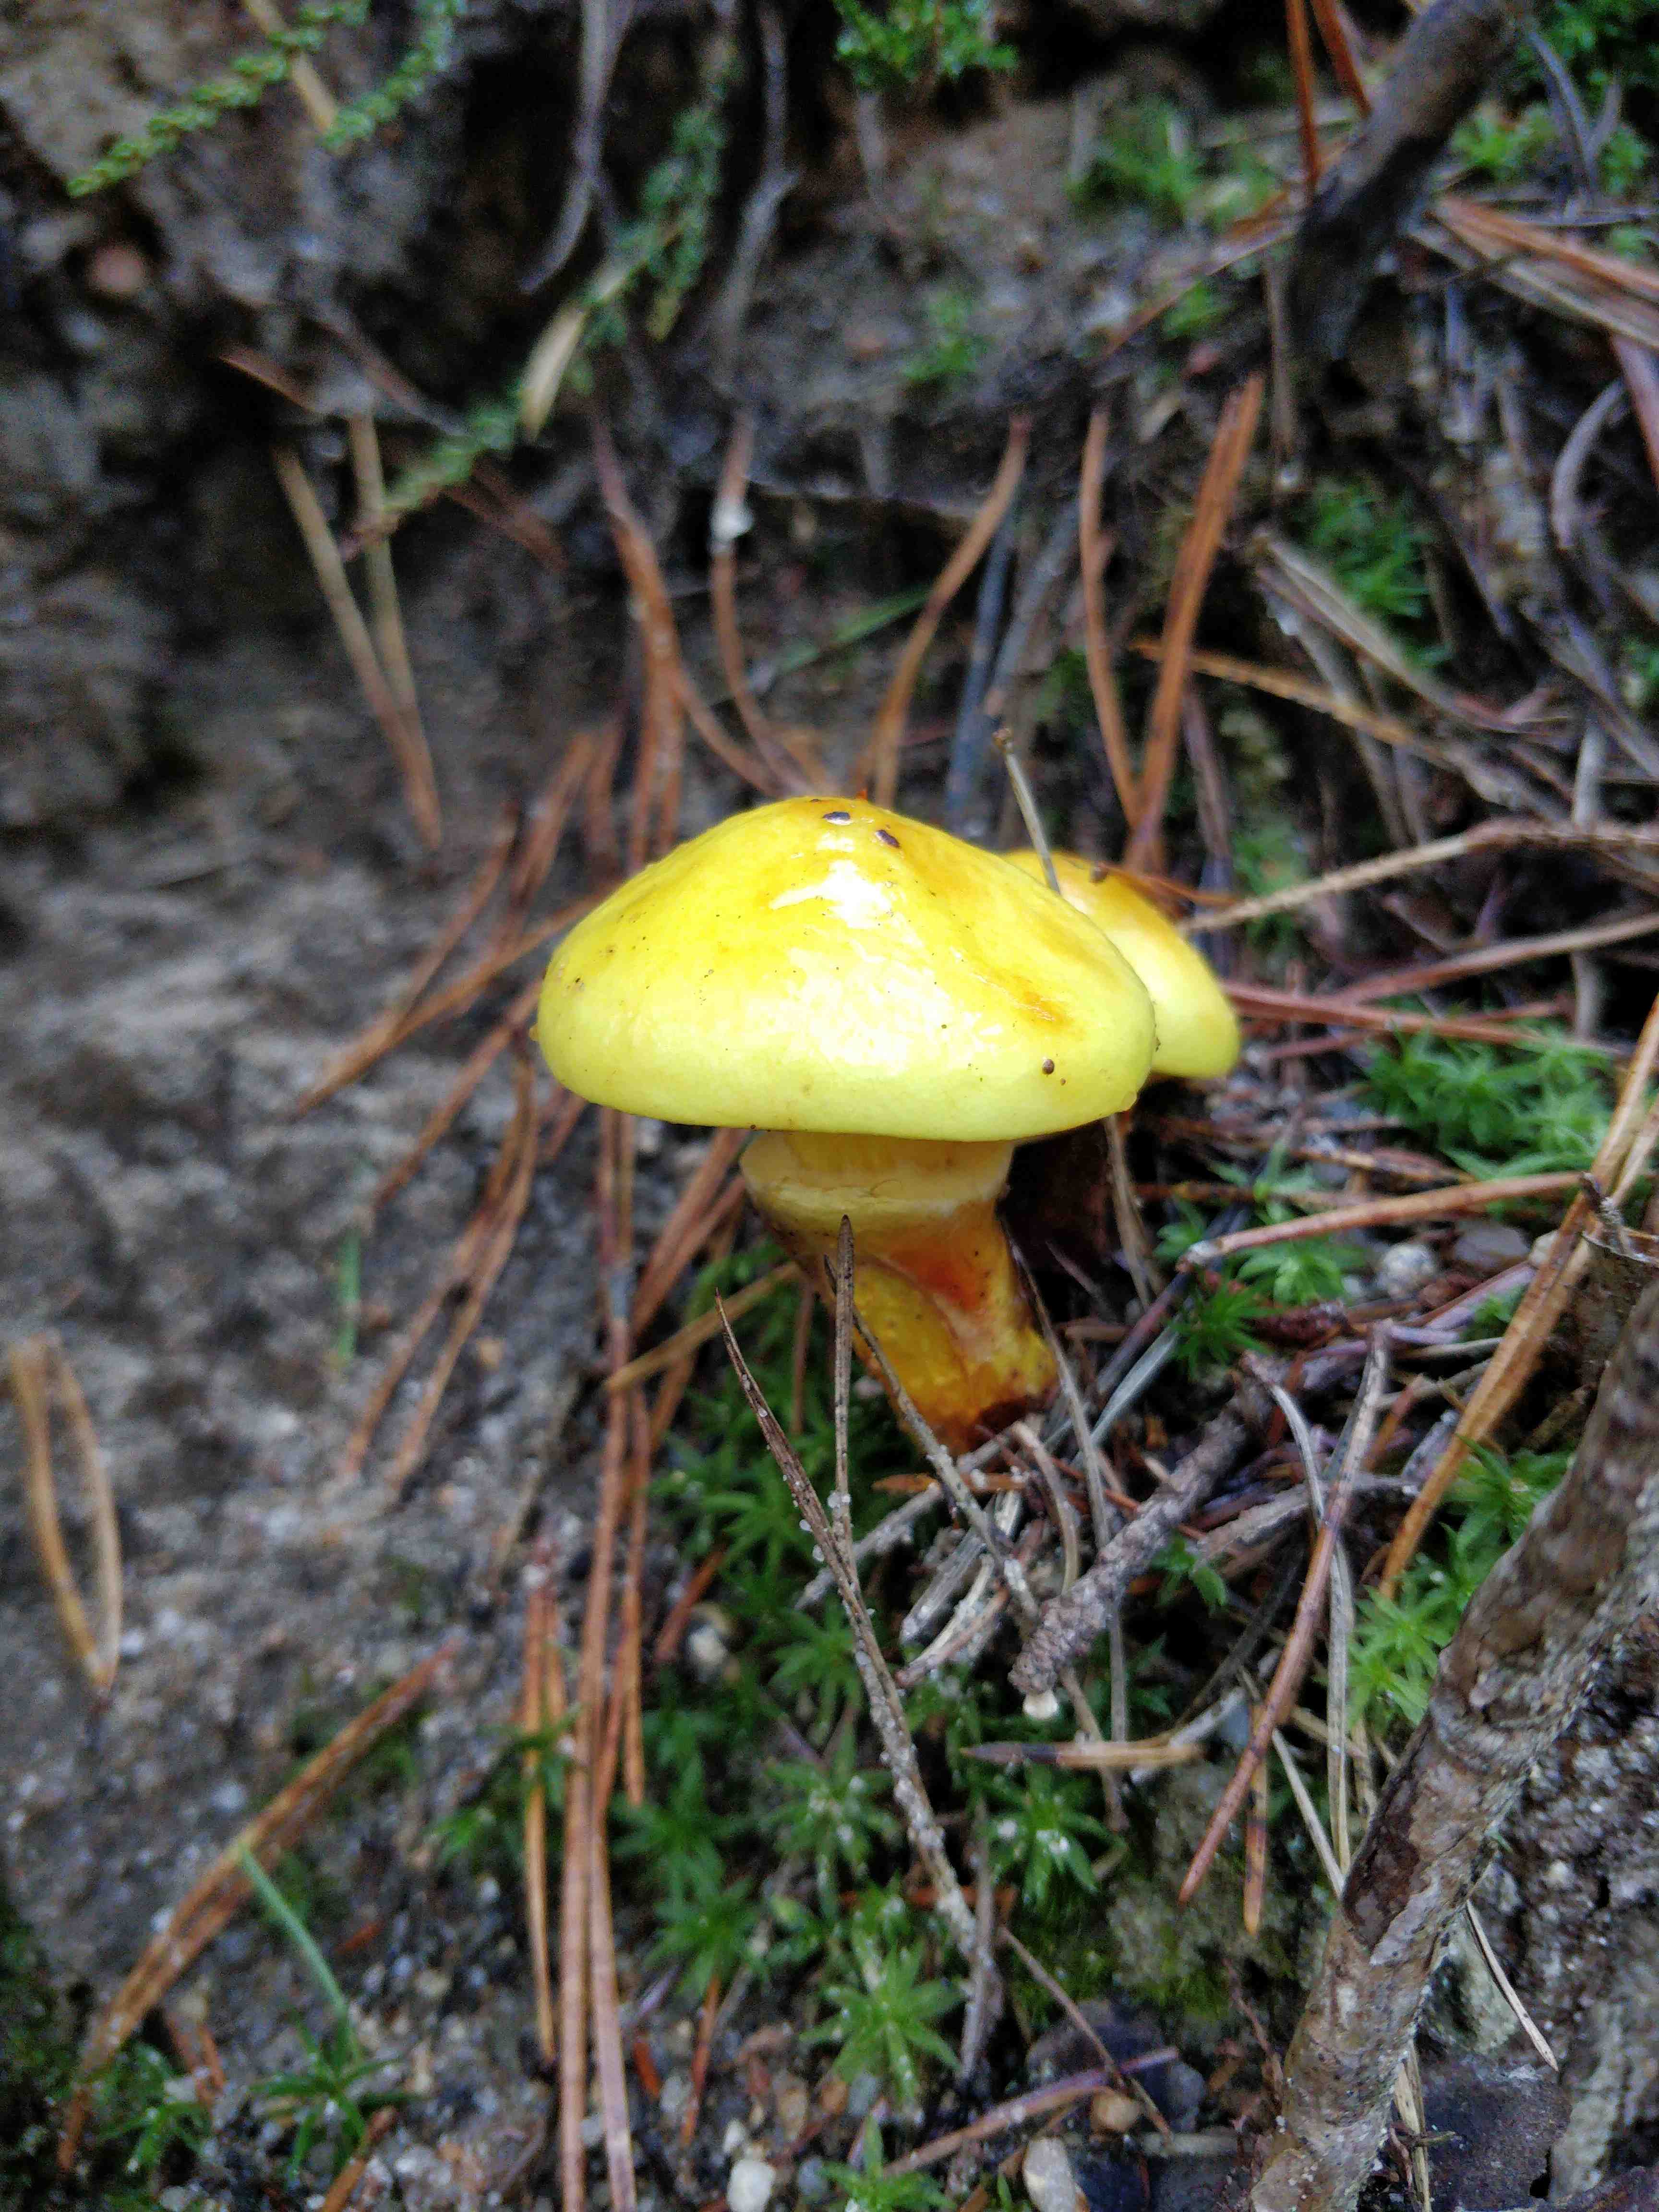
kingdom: Fungi
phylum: Basidiomycota
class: Agaricomycetes
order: Boletales
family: Suillaceae
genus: Suillus
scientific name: Suillus grevillei
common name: lærke-slimrørhat
